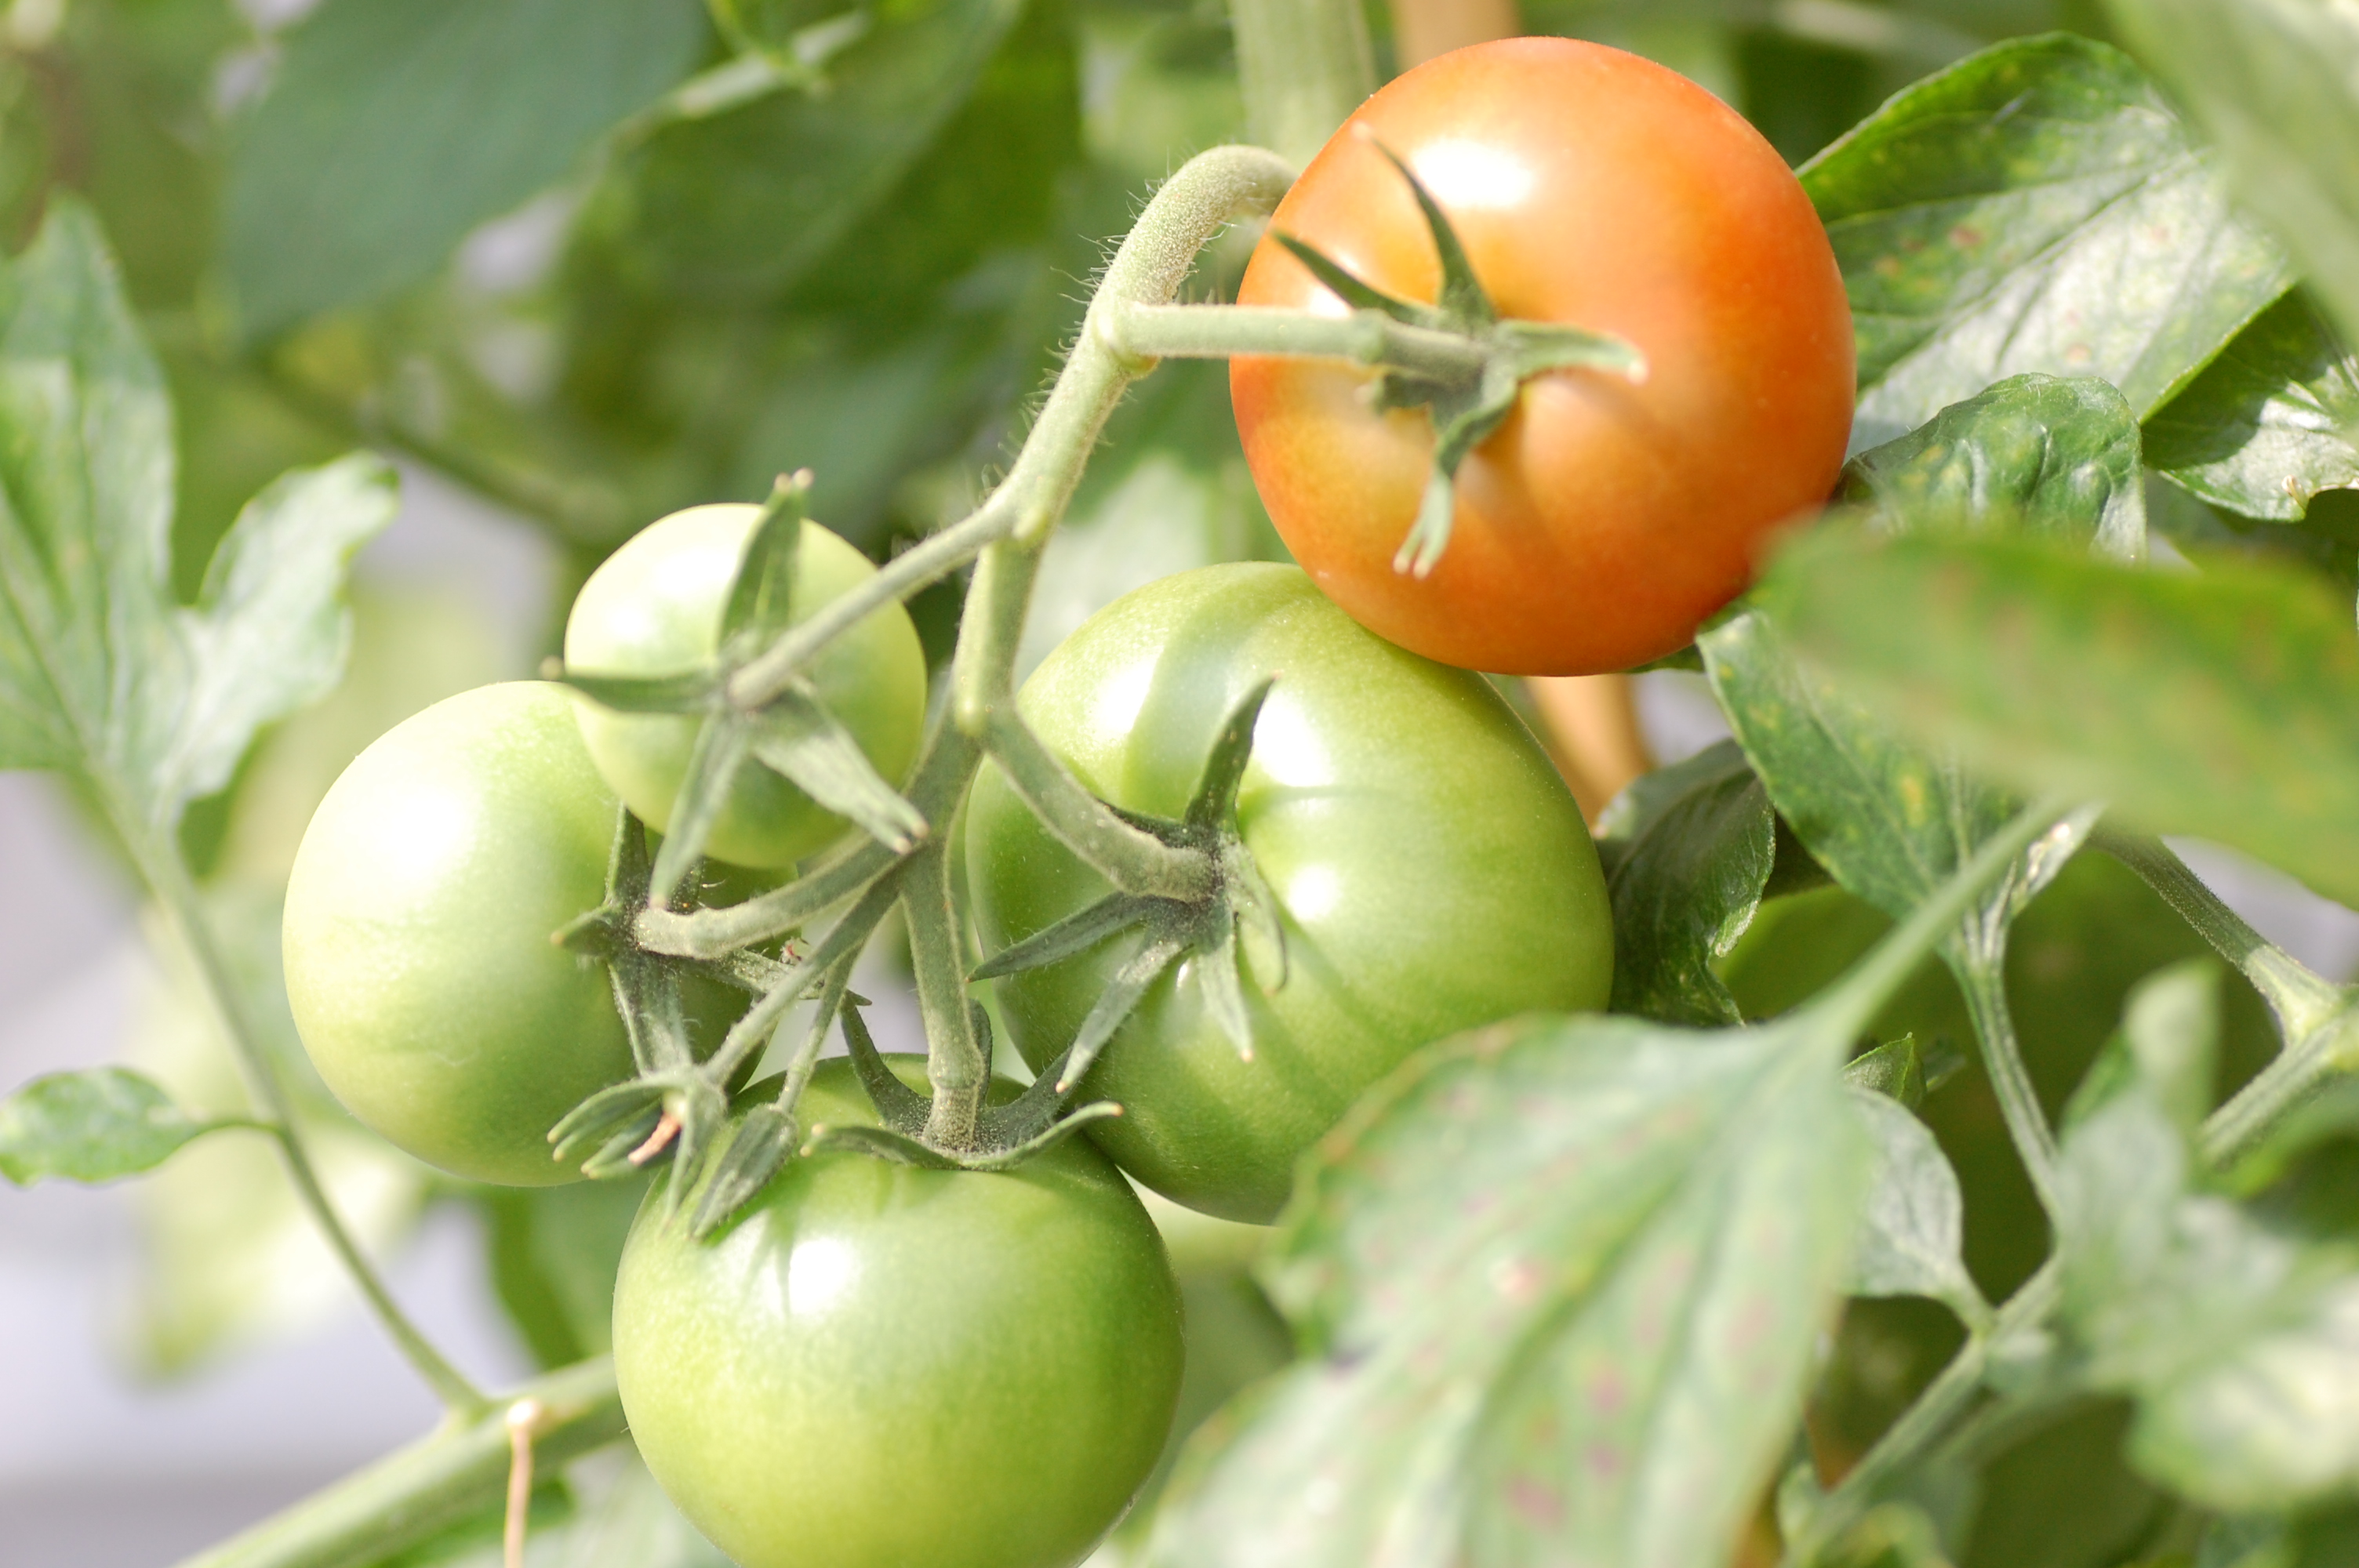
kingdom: Plantae
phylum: Tracheophyta
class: Magnoliopsida
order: Solanales
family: Solanaceae
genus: Solanum
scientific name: Solanum lycopersicum
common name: Garden tomato
